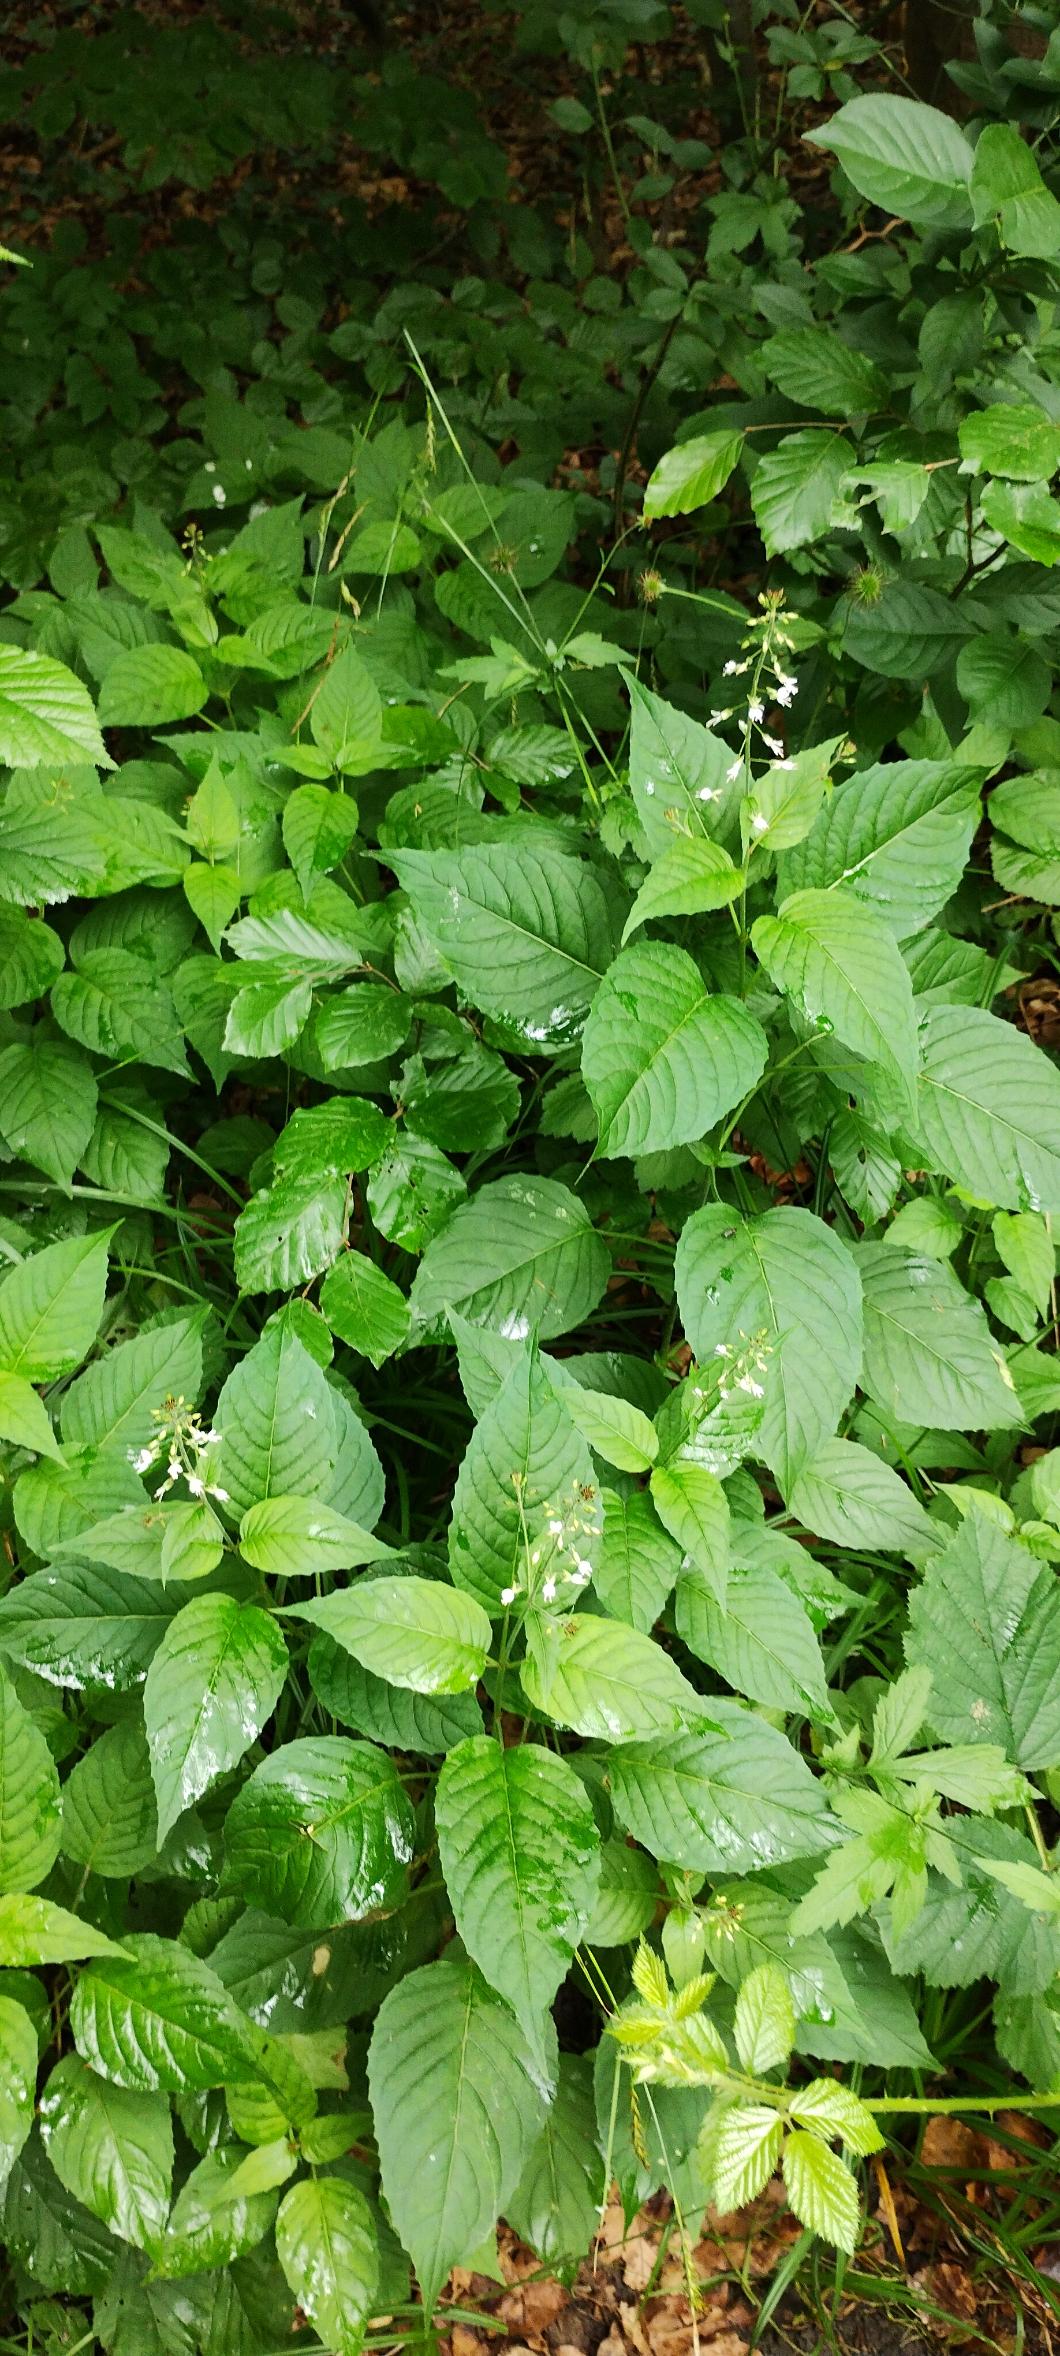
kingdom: Plantae
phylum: Tracheophyta
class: Magnoliopsida
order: Myrtales
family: Onagraceae
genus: Circaea
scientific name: Circaea lutetiana
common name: Dunet steffensurt
